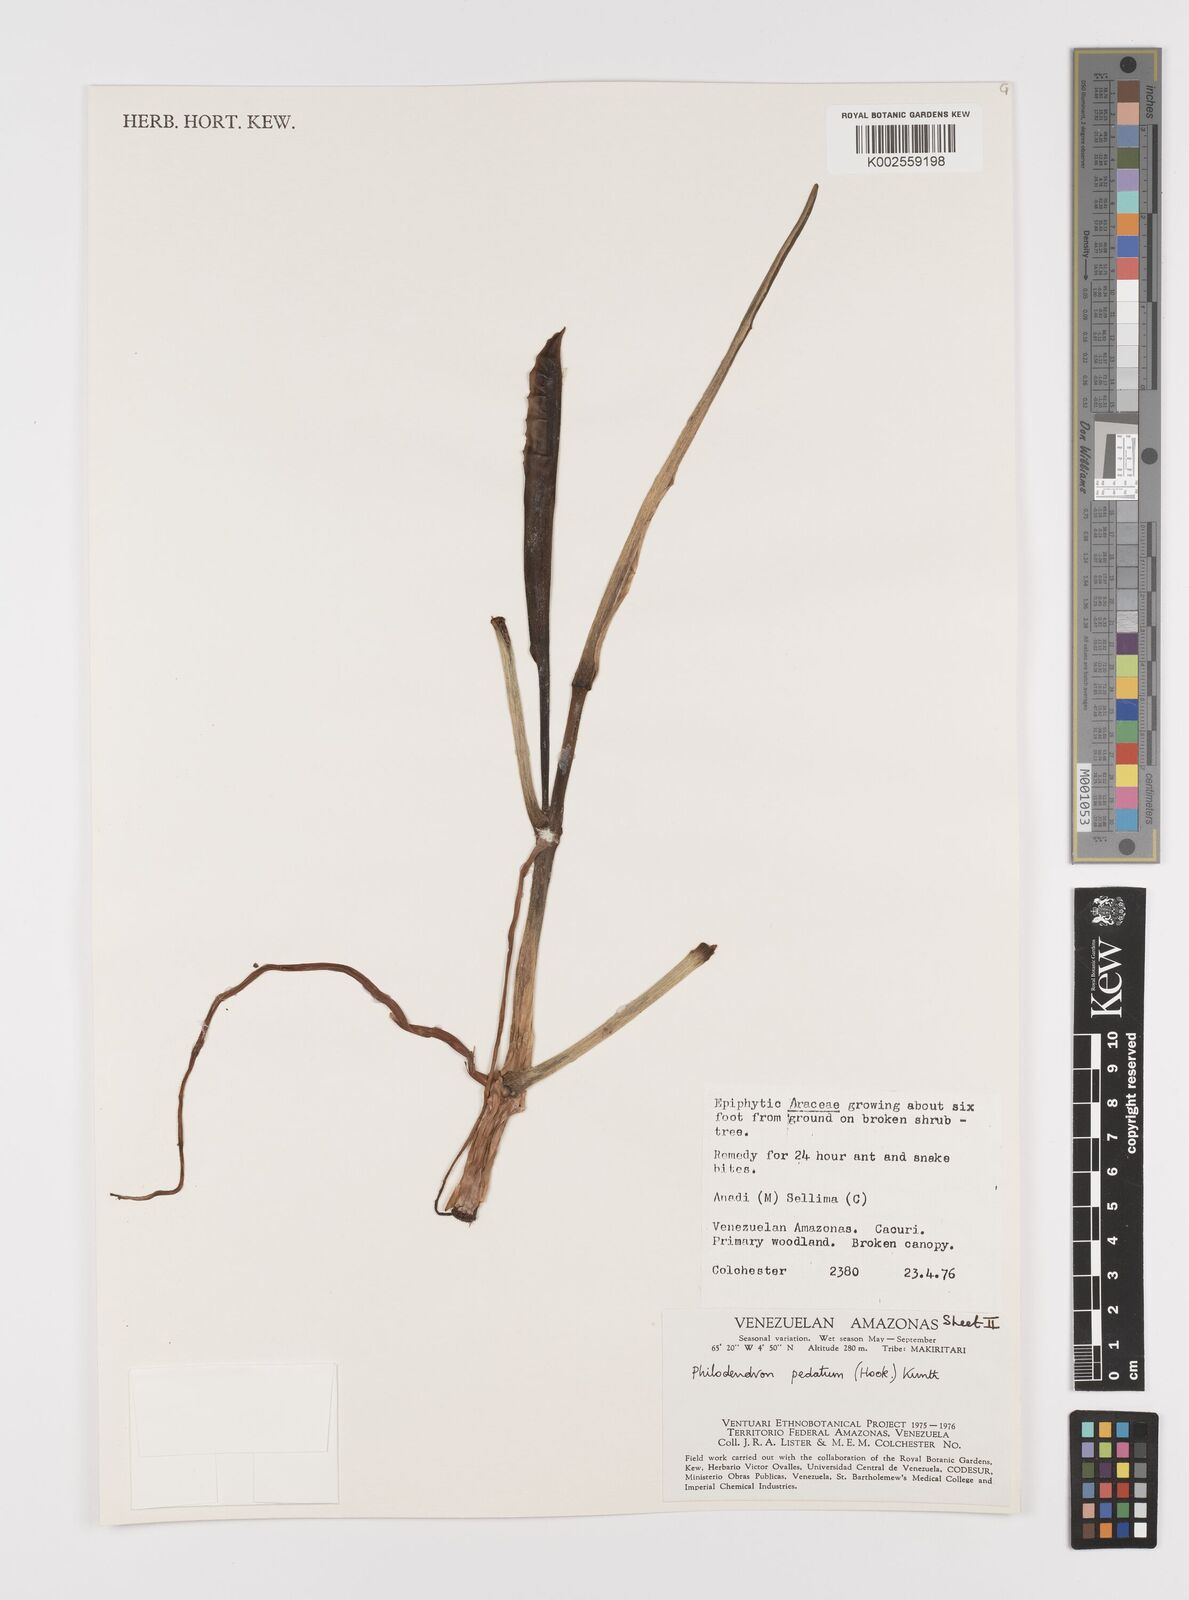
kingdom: Plantae
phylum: Tracheophyta
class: Liliopsida
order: Alismatales
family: Araceae
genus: Philodendron
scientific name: Philodendron pedatum
